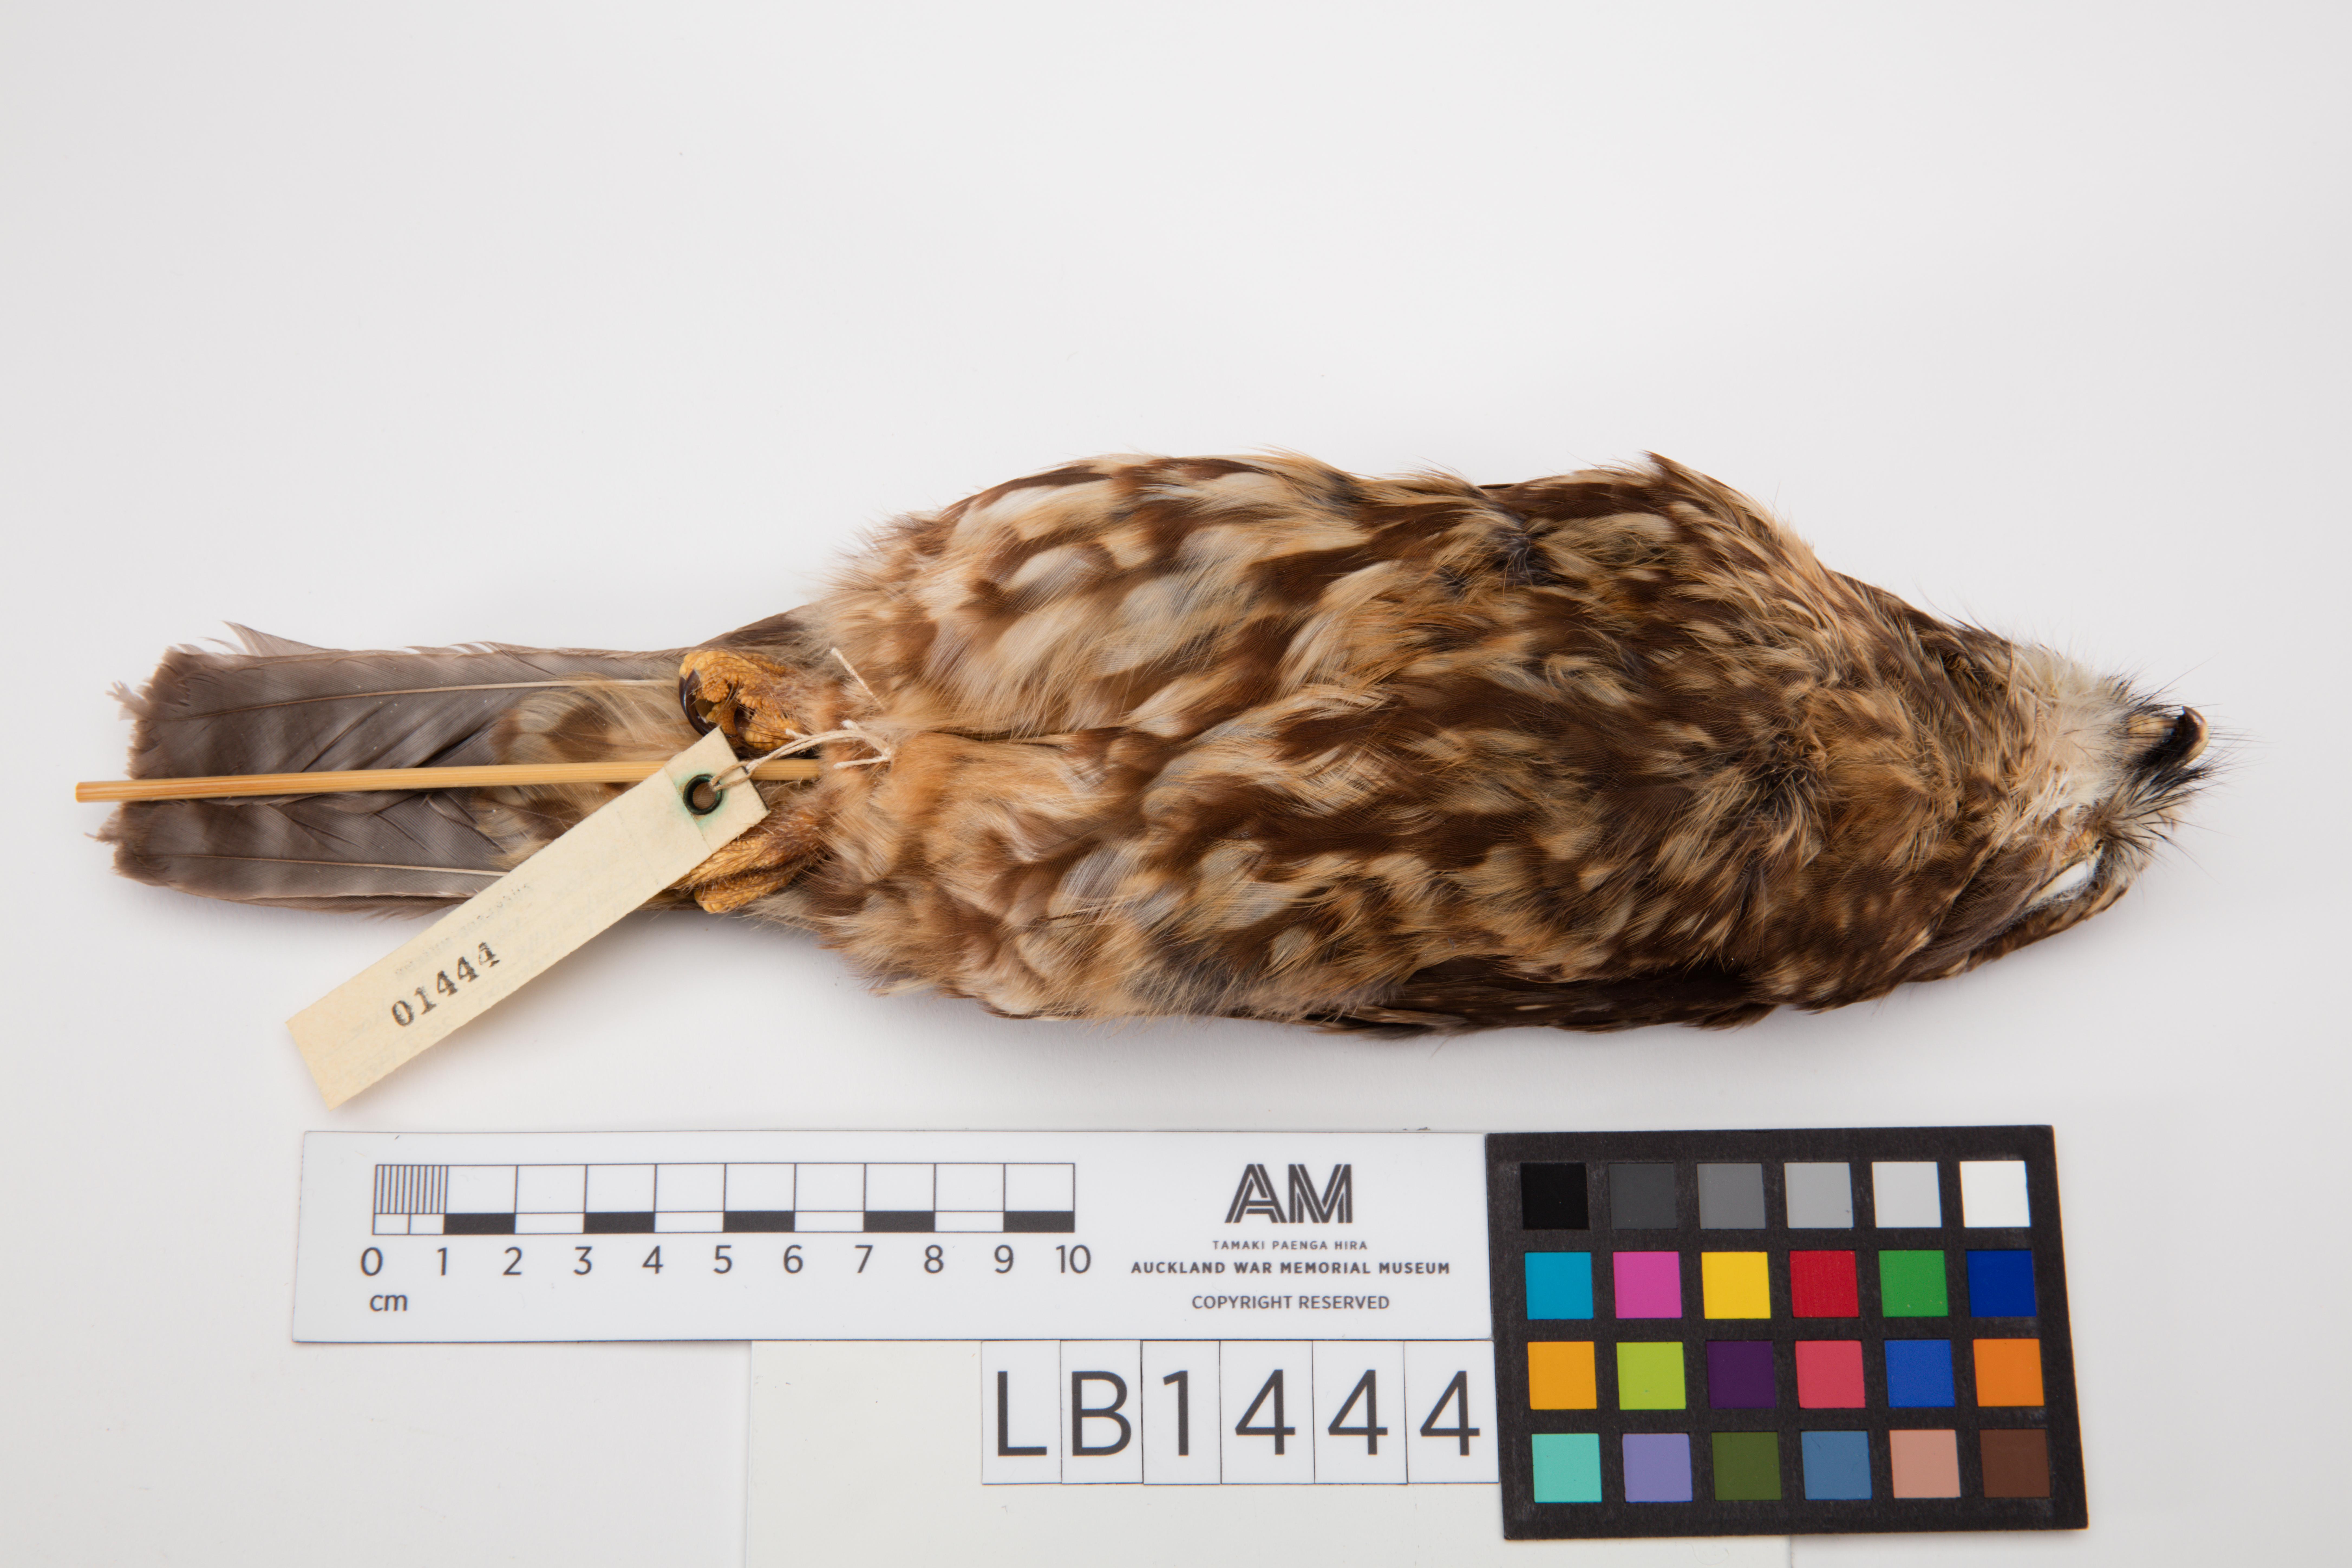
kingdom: Animalia
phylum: Chordata
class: Aves
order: Strigiformes
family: Strigidae
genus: Ninox
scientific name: Ninox novaeseelandiae
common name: Morepork
